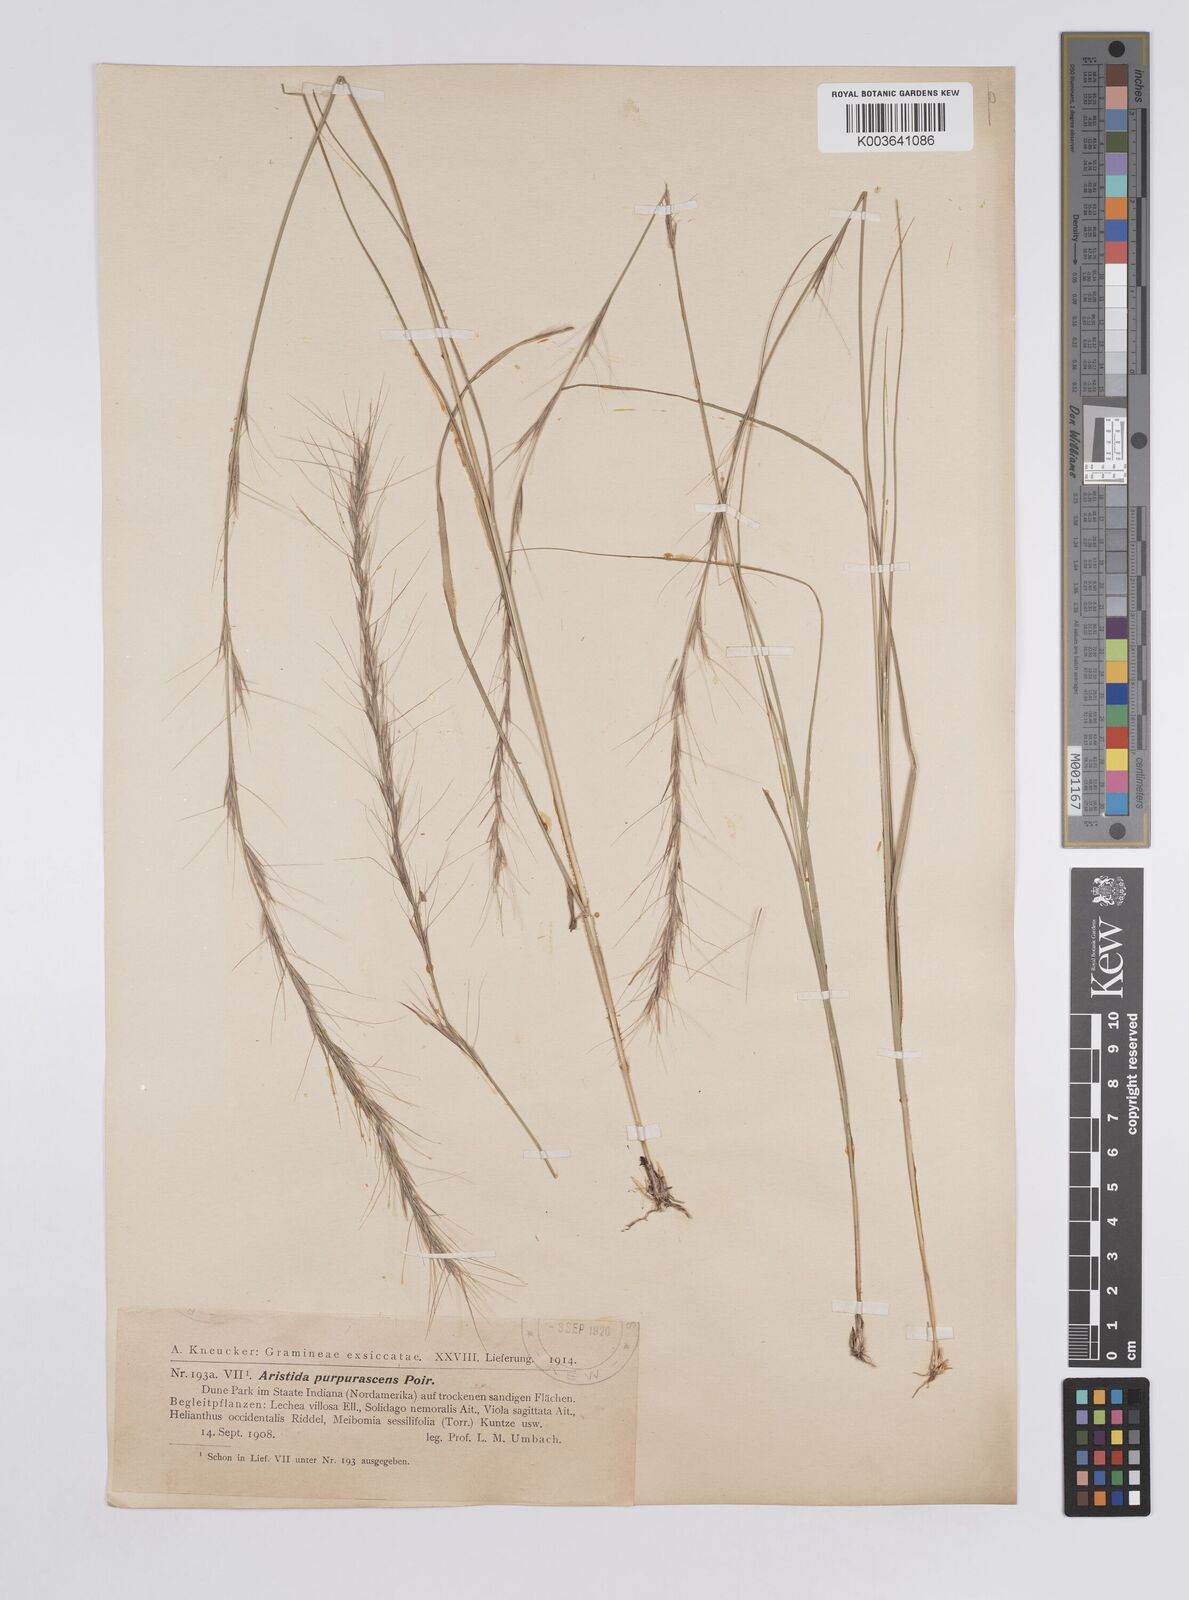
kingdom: Plantae
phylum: Tracheophyta
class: Liliopsida
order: Poales
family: Poaceae
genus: Aristida
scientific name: Aristida purpurascens
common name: Arrow-feather
